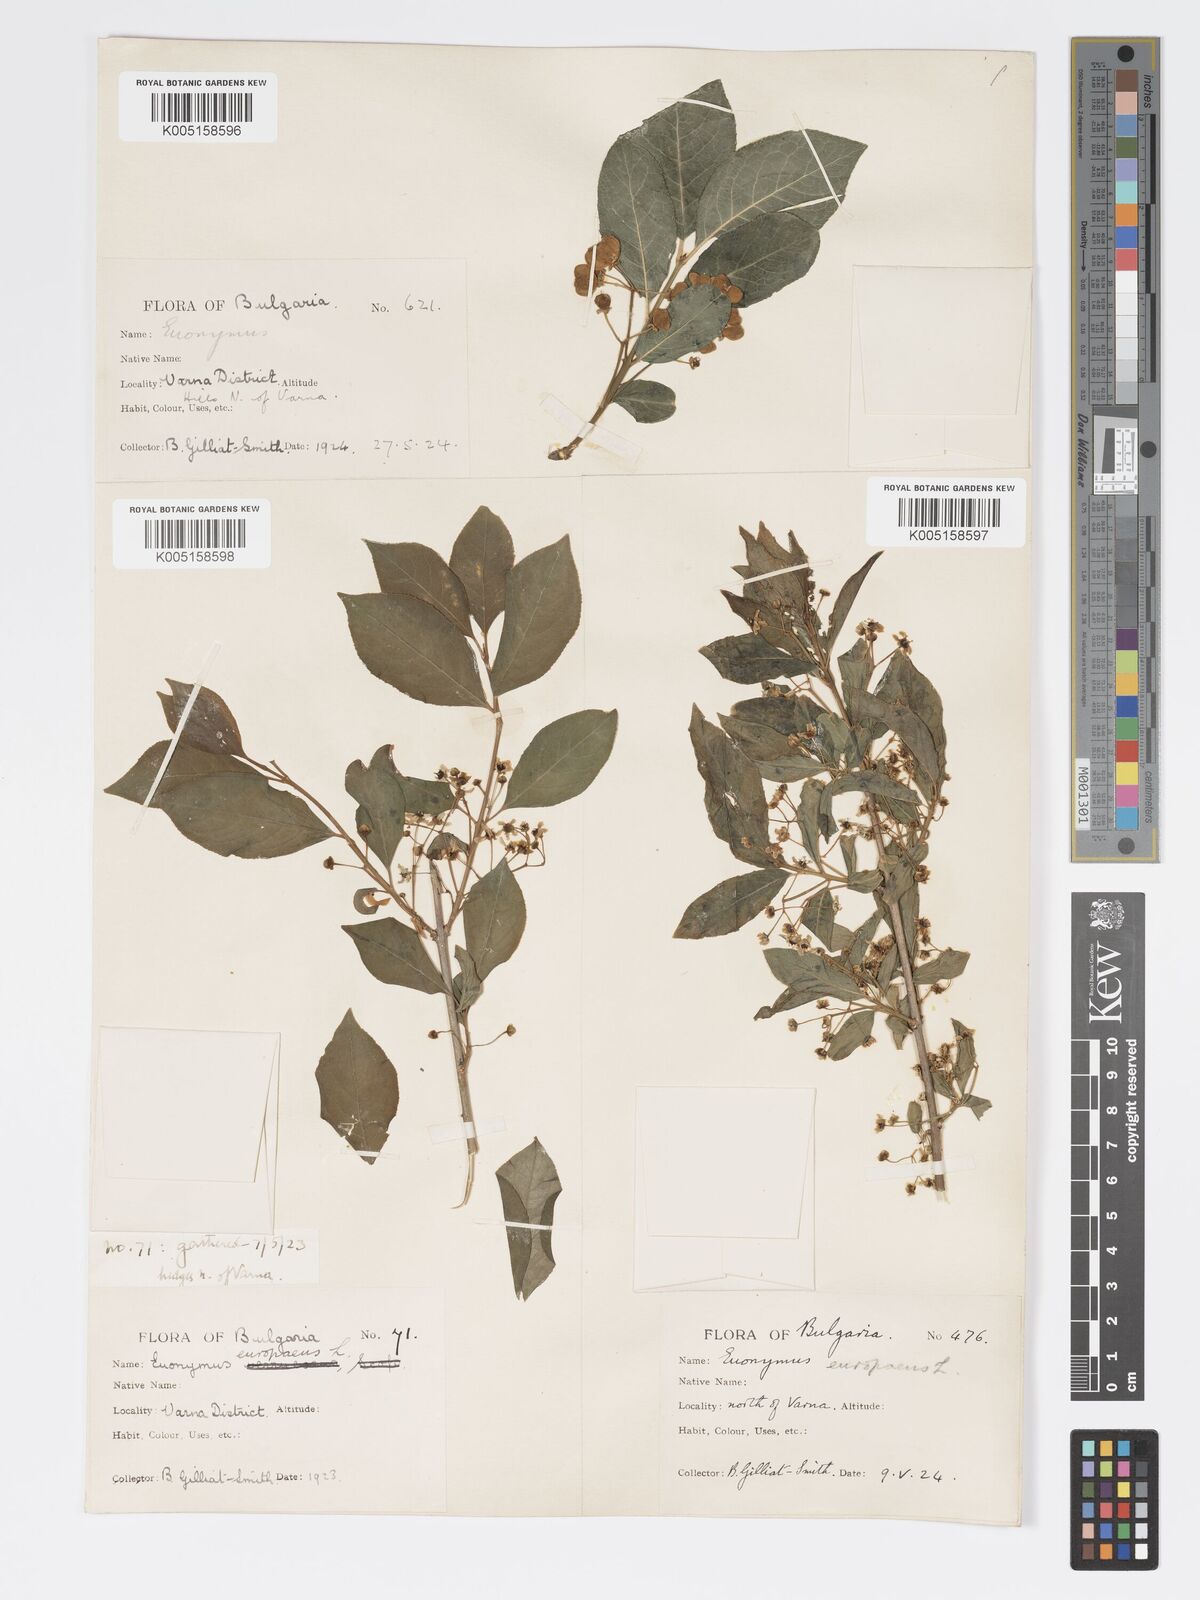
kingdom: Plantae
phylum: Tracheophyta
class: Magnoliopsida
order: Celastrales
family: Celastraceae
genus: Euonymus
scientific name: Euonymus europaeus
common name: Spindle
